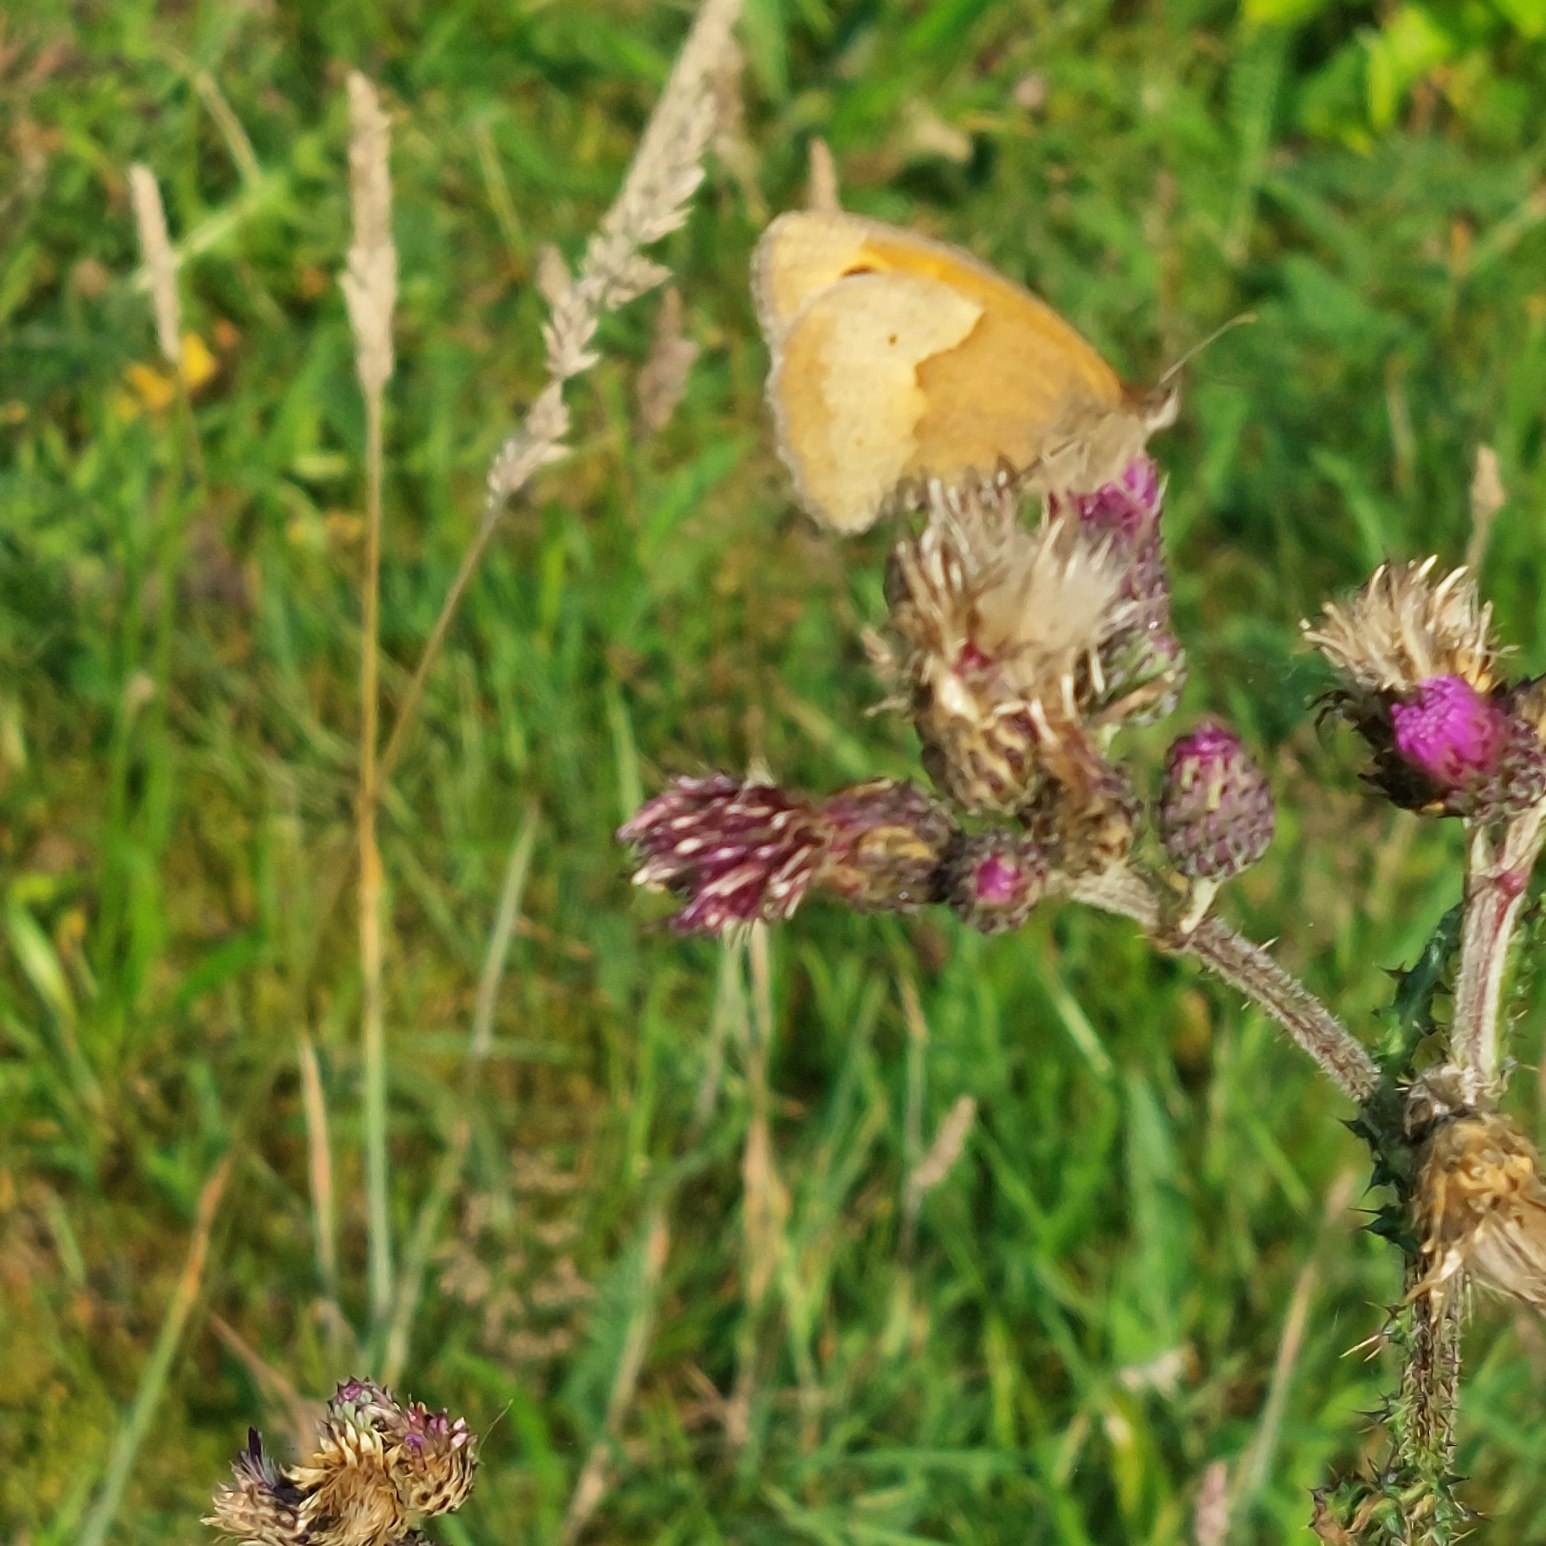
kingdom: Animalia
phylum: Arthropoda
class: Insecta
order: Lepidoptera
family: Nymphalidae
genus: Maniola
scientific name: Maniola jurtina
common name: Græsrandøje
